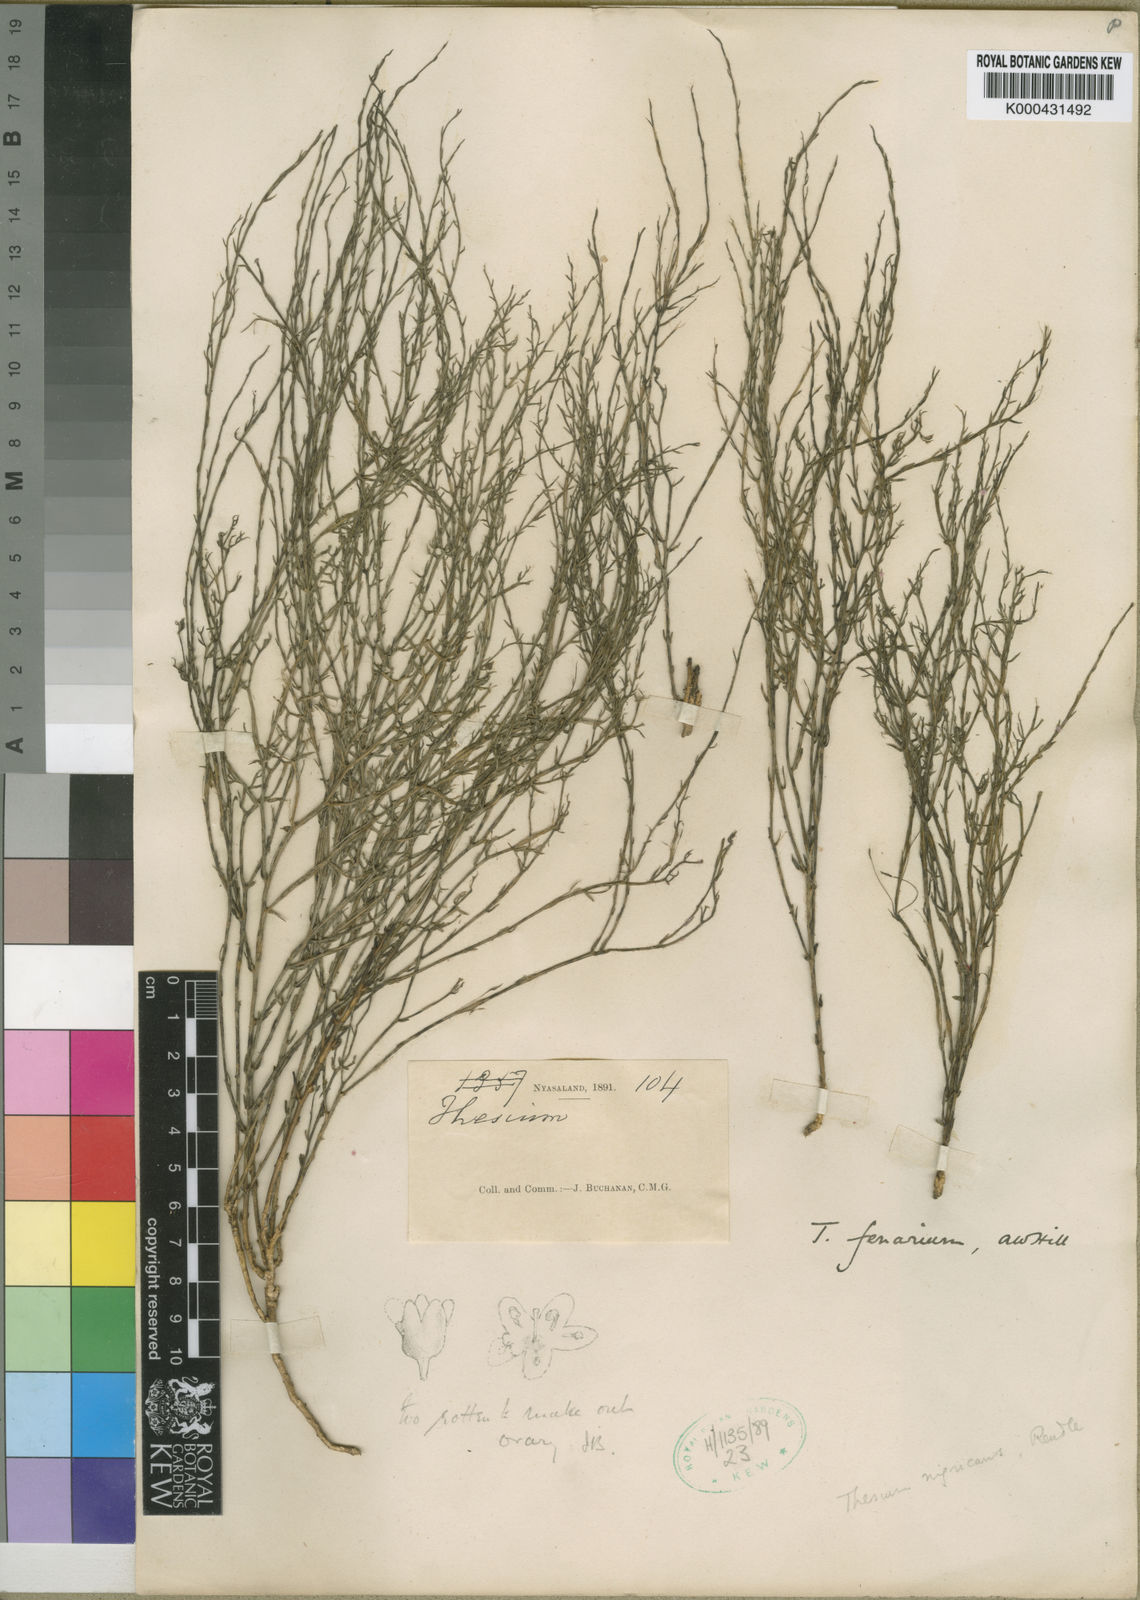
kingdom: Plantae
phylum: Tracheophyta
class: Magnoliopsida
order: Santalales
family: Thesiaceae
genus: Thesium
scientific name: Thesium cymosum
